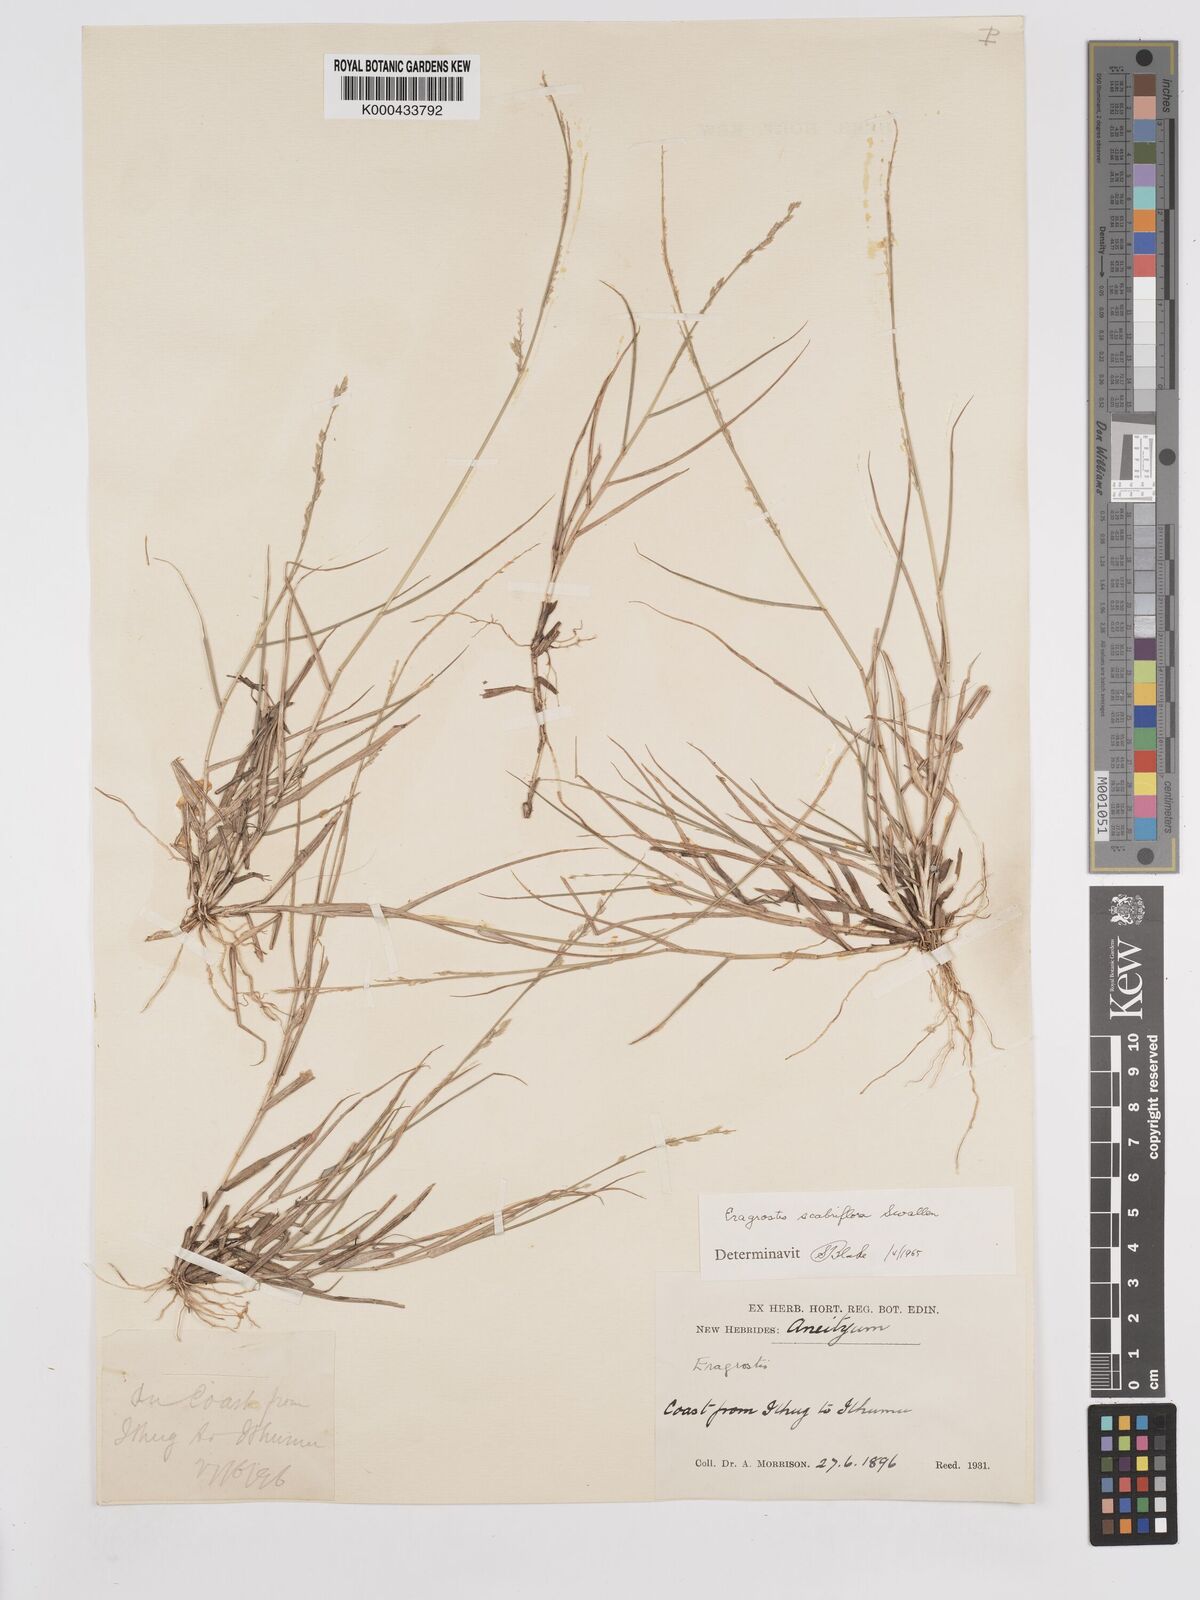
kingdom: Plantae
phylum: Tracheophyta
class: Liliopsida
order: Poales
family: Poaceae
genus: Eragrostis
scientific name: Eragrostis scabriflora
